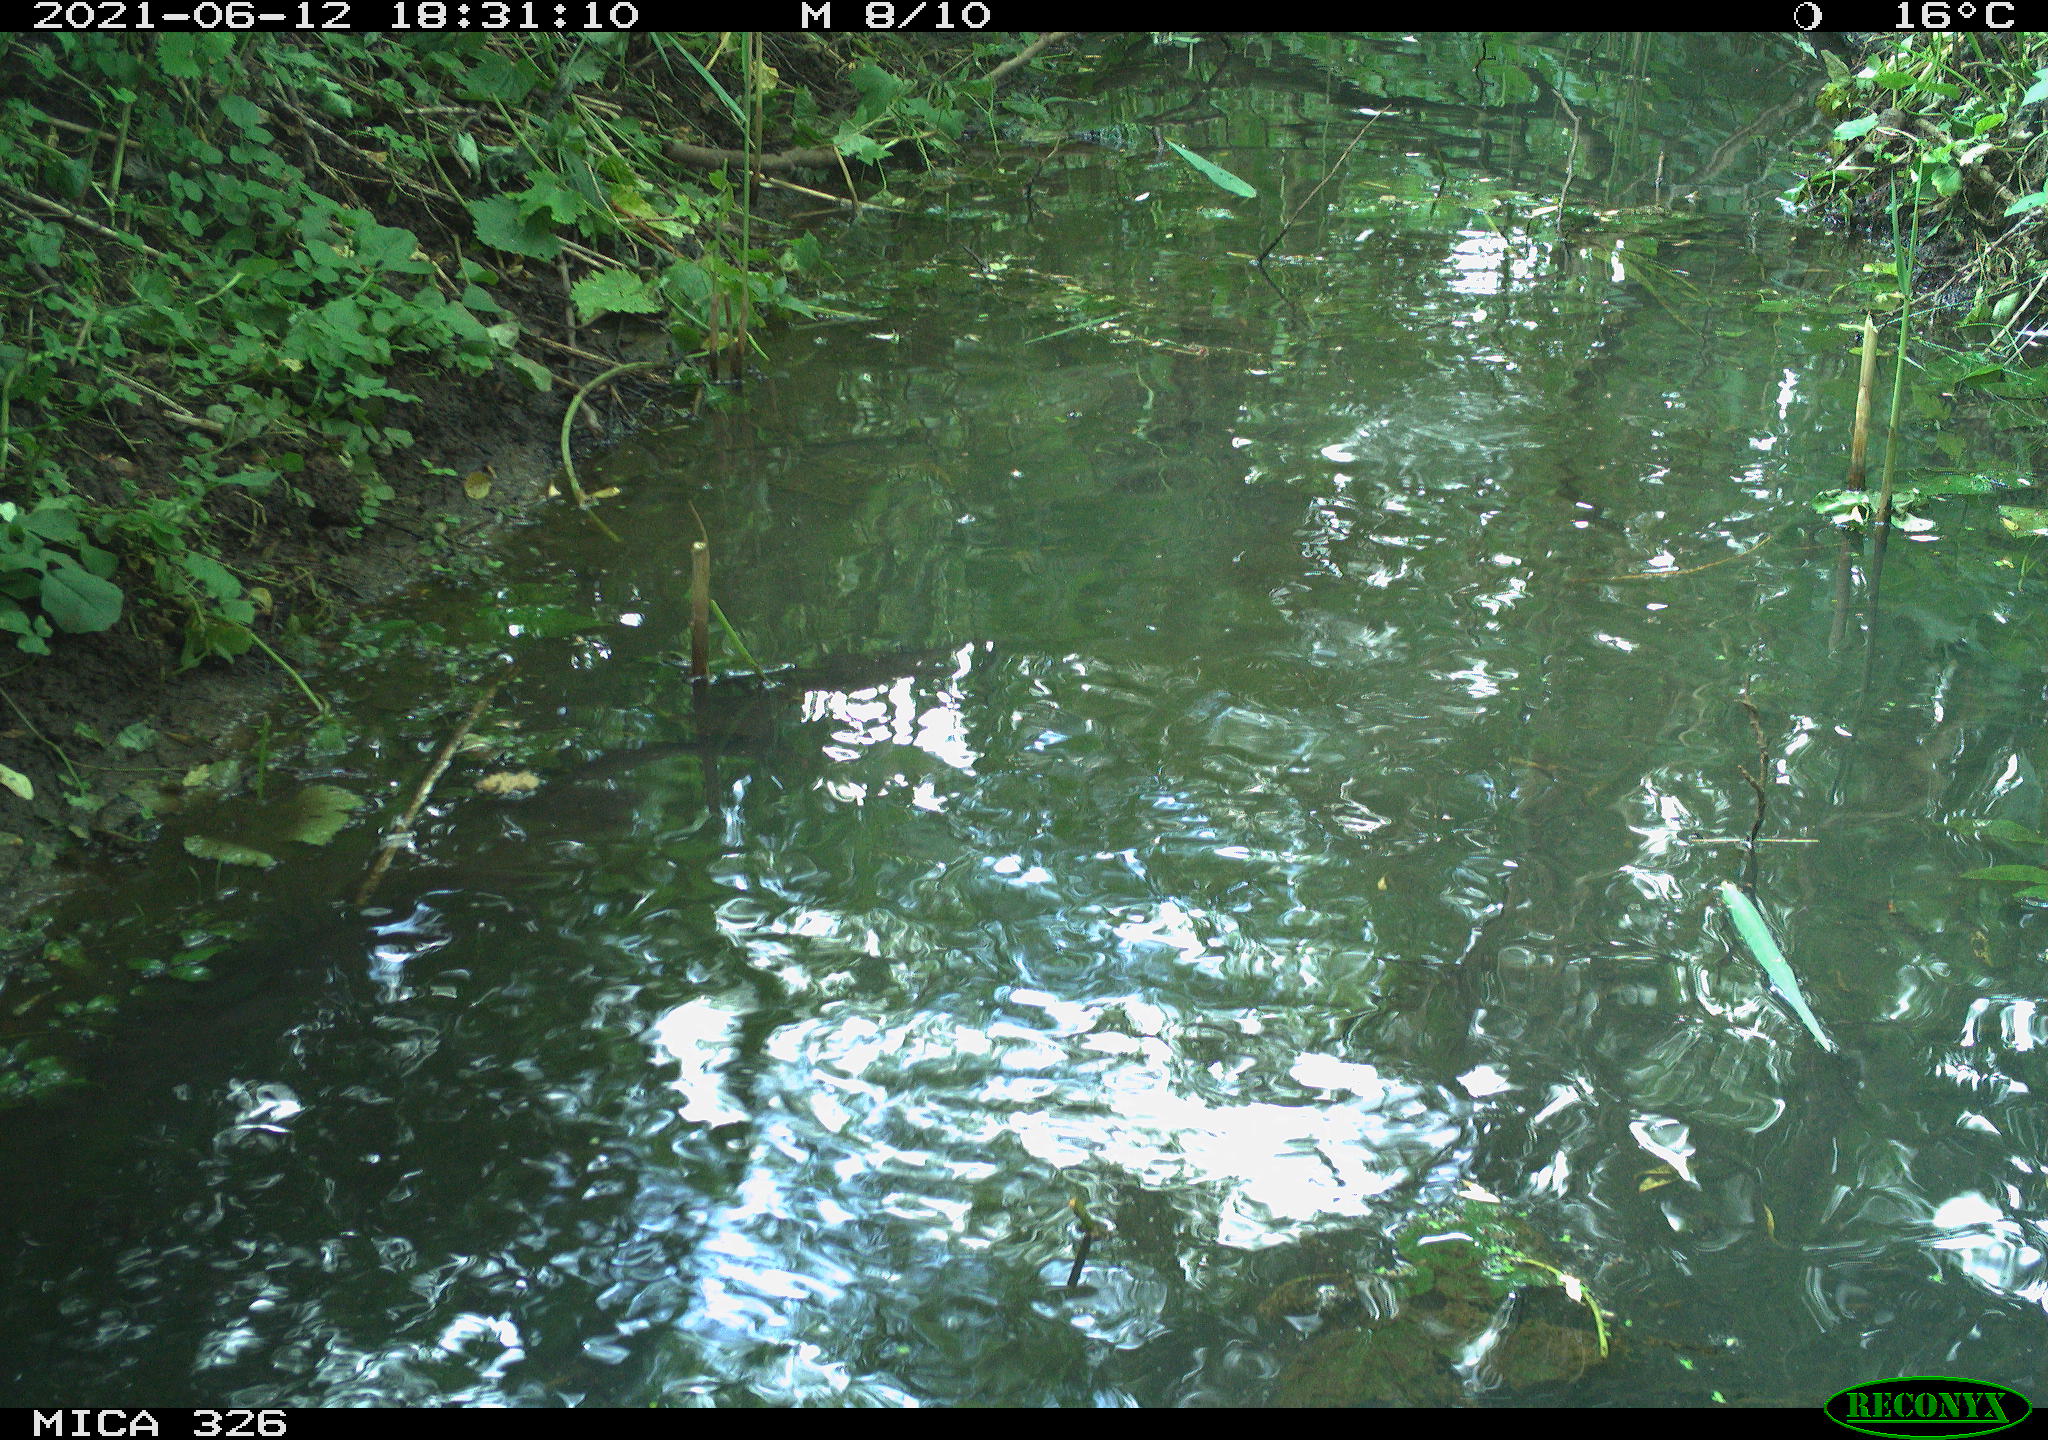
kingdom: Animalia
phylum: Chordata
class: Aves
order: Anseriformes
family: Anatidae
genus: Anas
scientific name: Anas platyrhynchos
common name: Mallard
